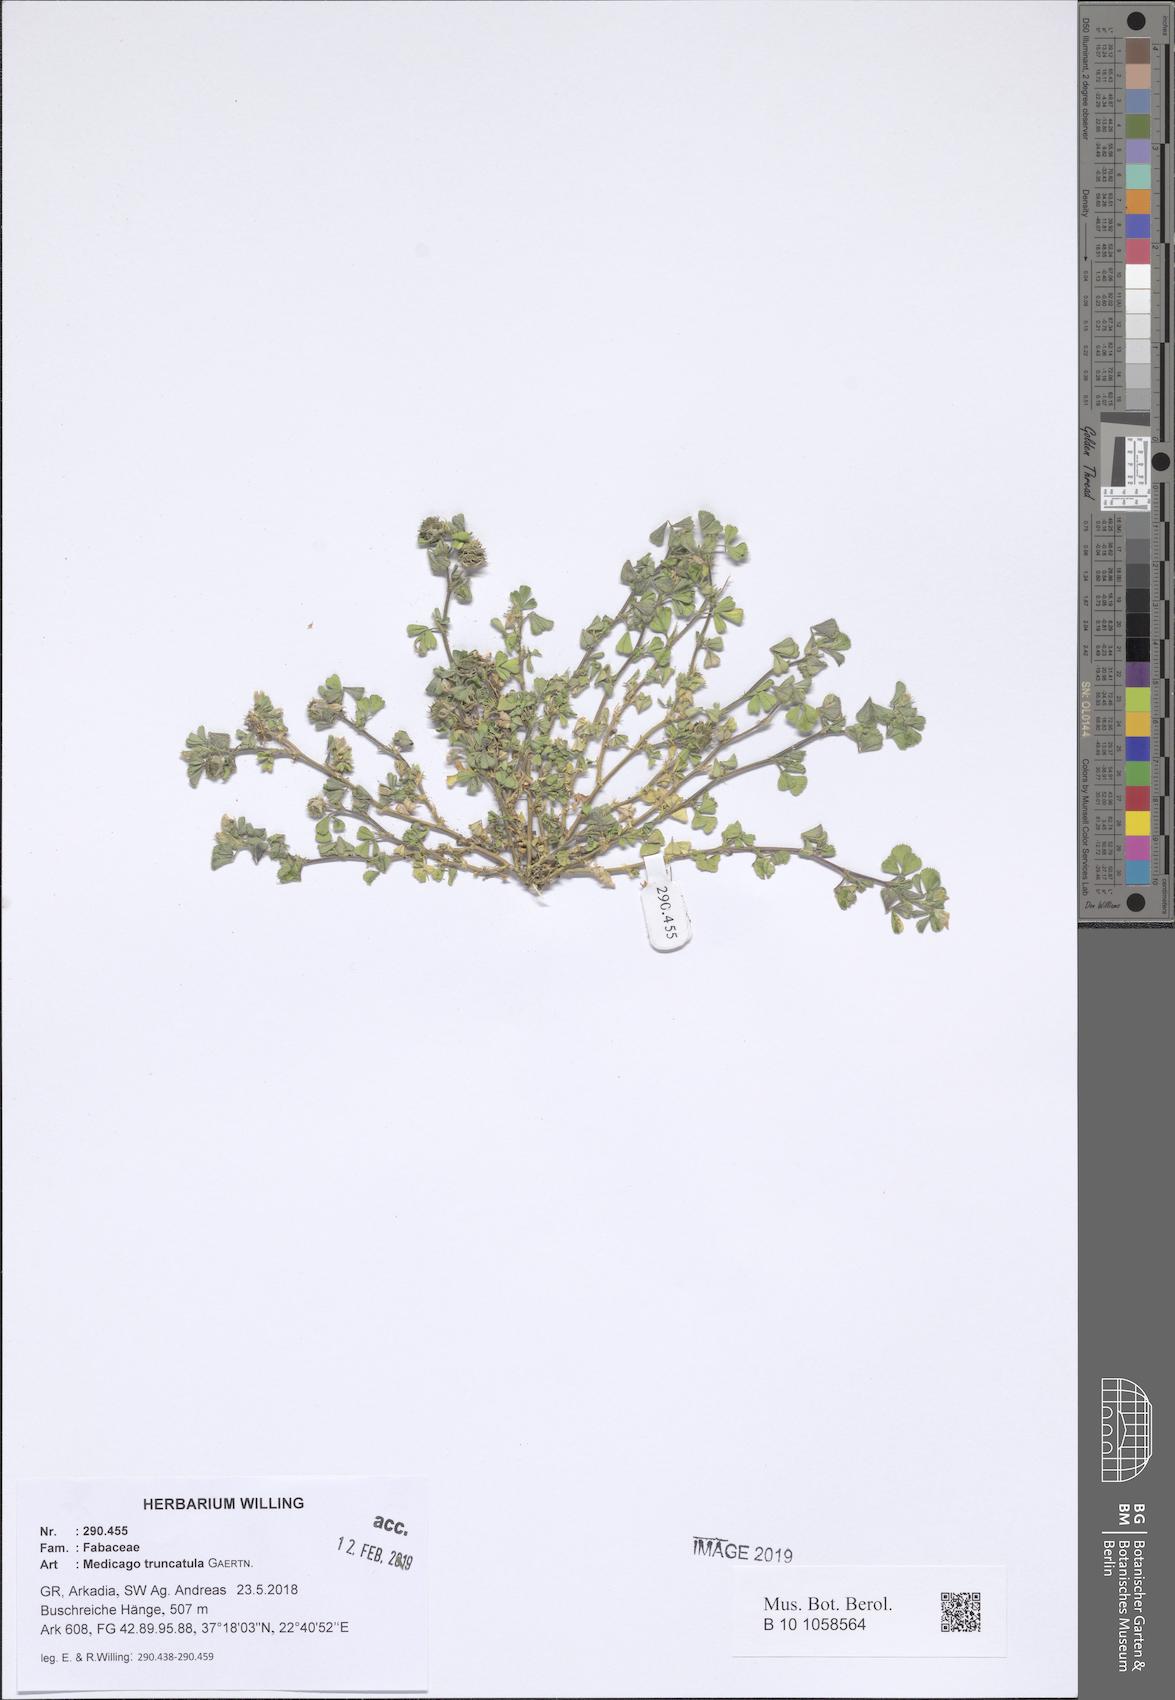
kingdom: Plantae
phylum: Tracheophyta
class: Magnoliopsida
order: Fabales
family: Fabaceae
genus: Medicago
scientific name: Medicago truncatula
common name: Strong-spined medick
